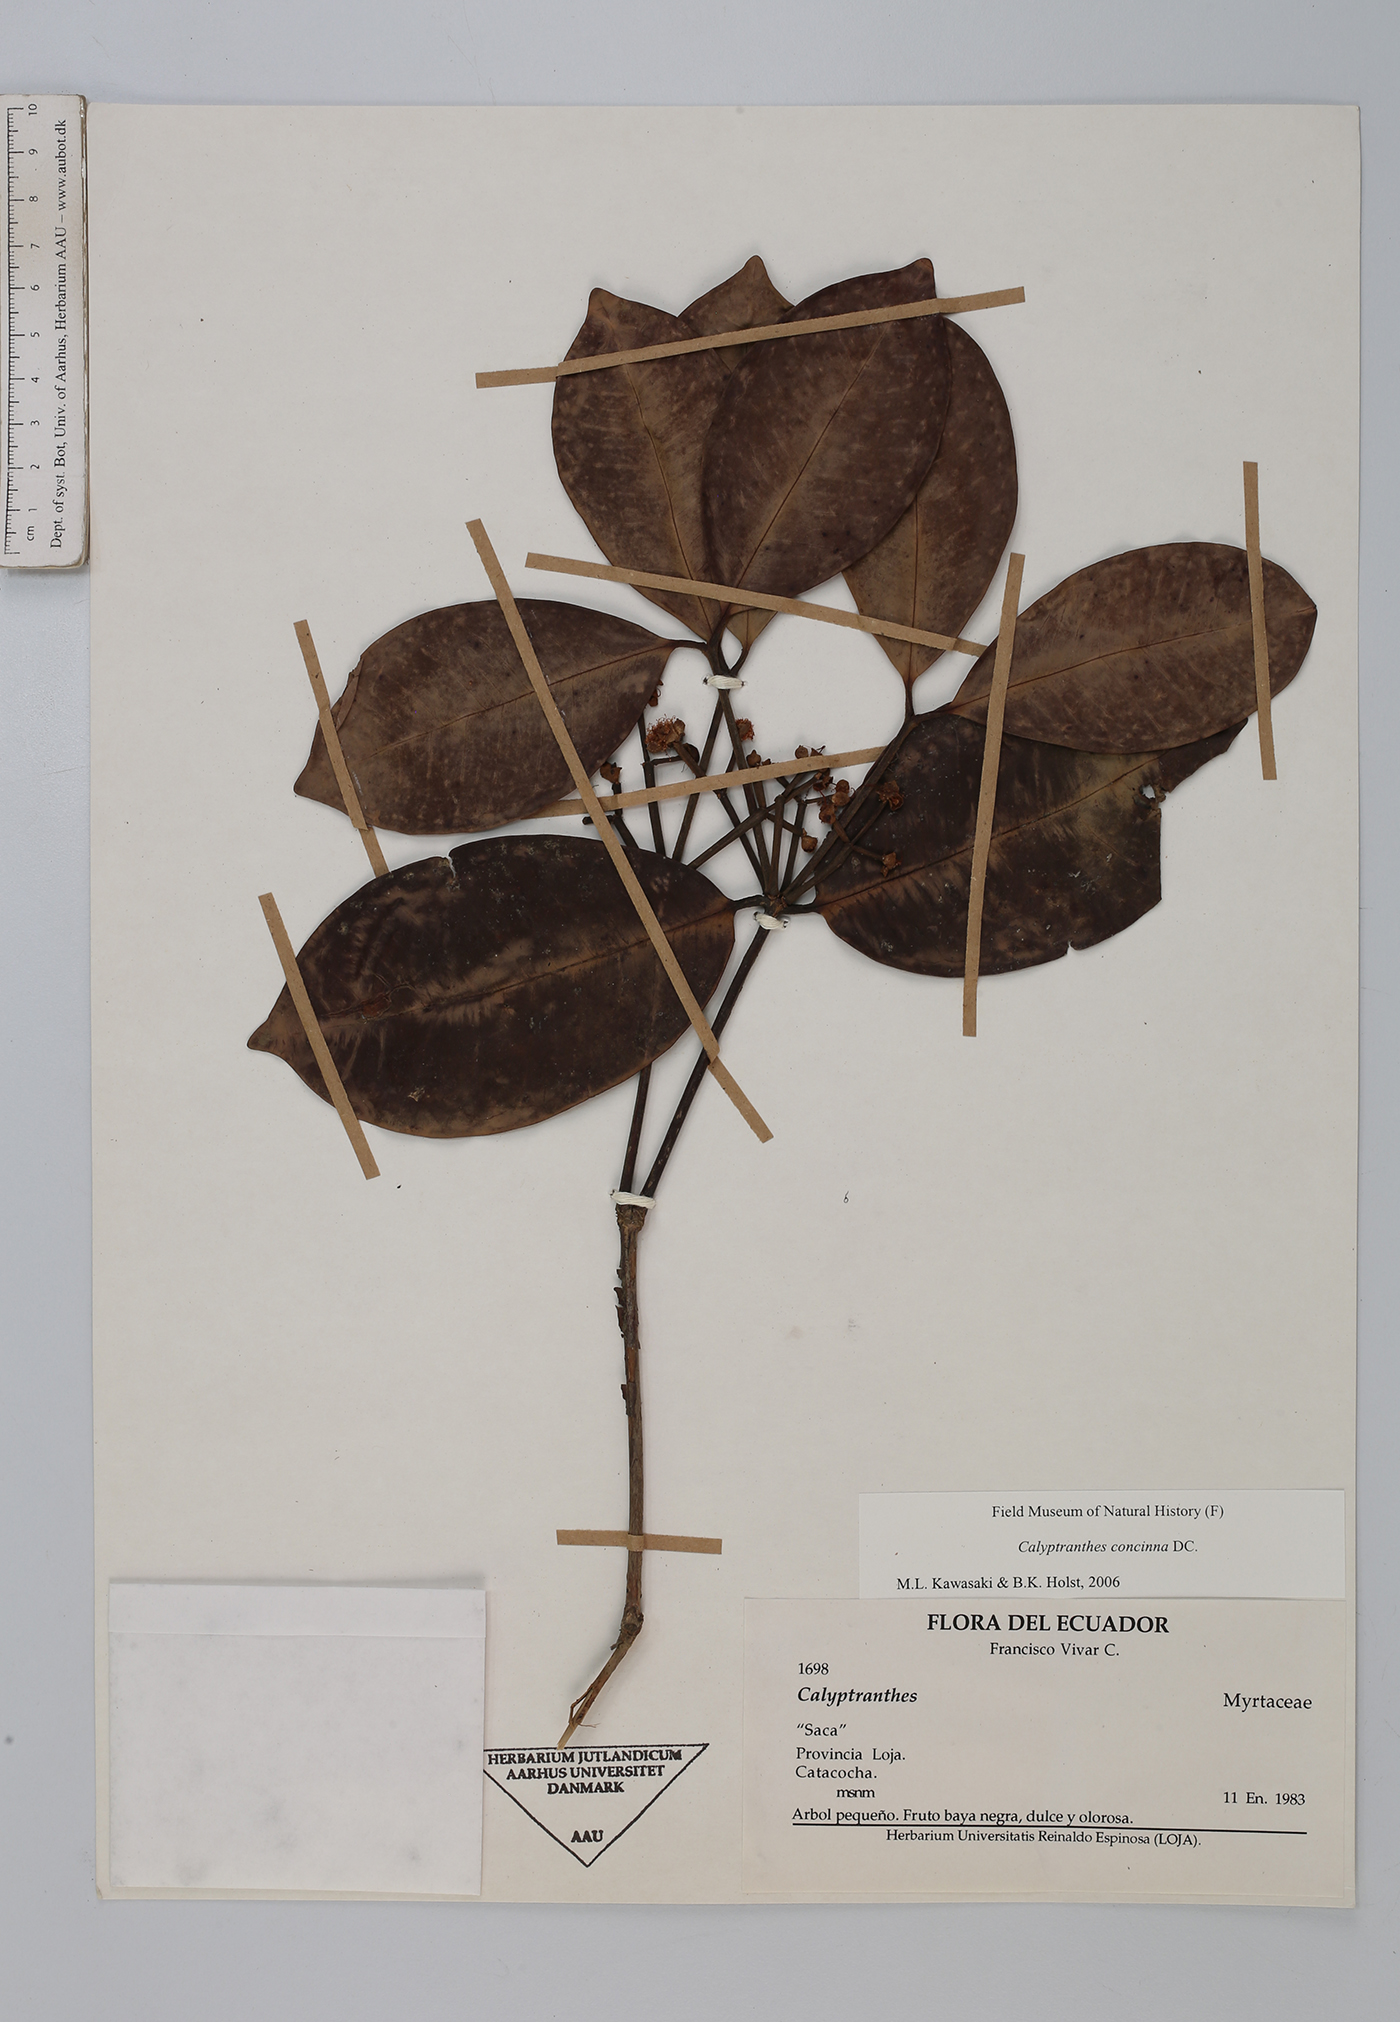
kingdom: Plantae
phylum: Tracheophyta
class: Magnoliopsida
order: Myrtales
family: Myrtaceae
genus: Myrcia
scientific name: Myrcia cruciflora
